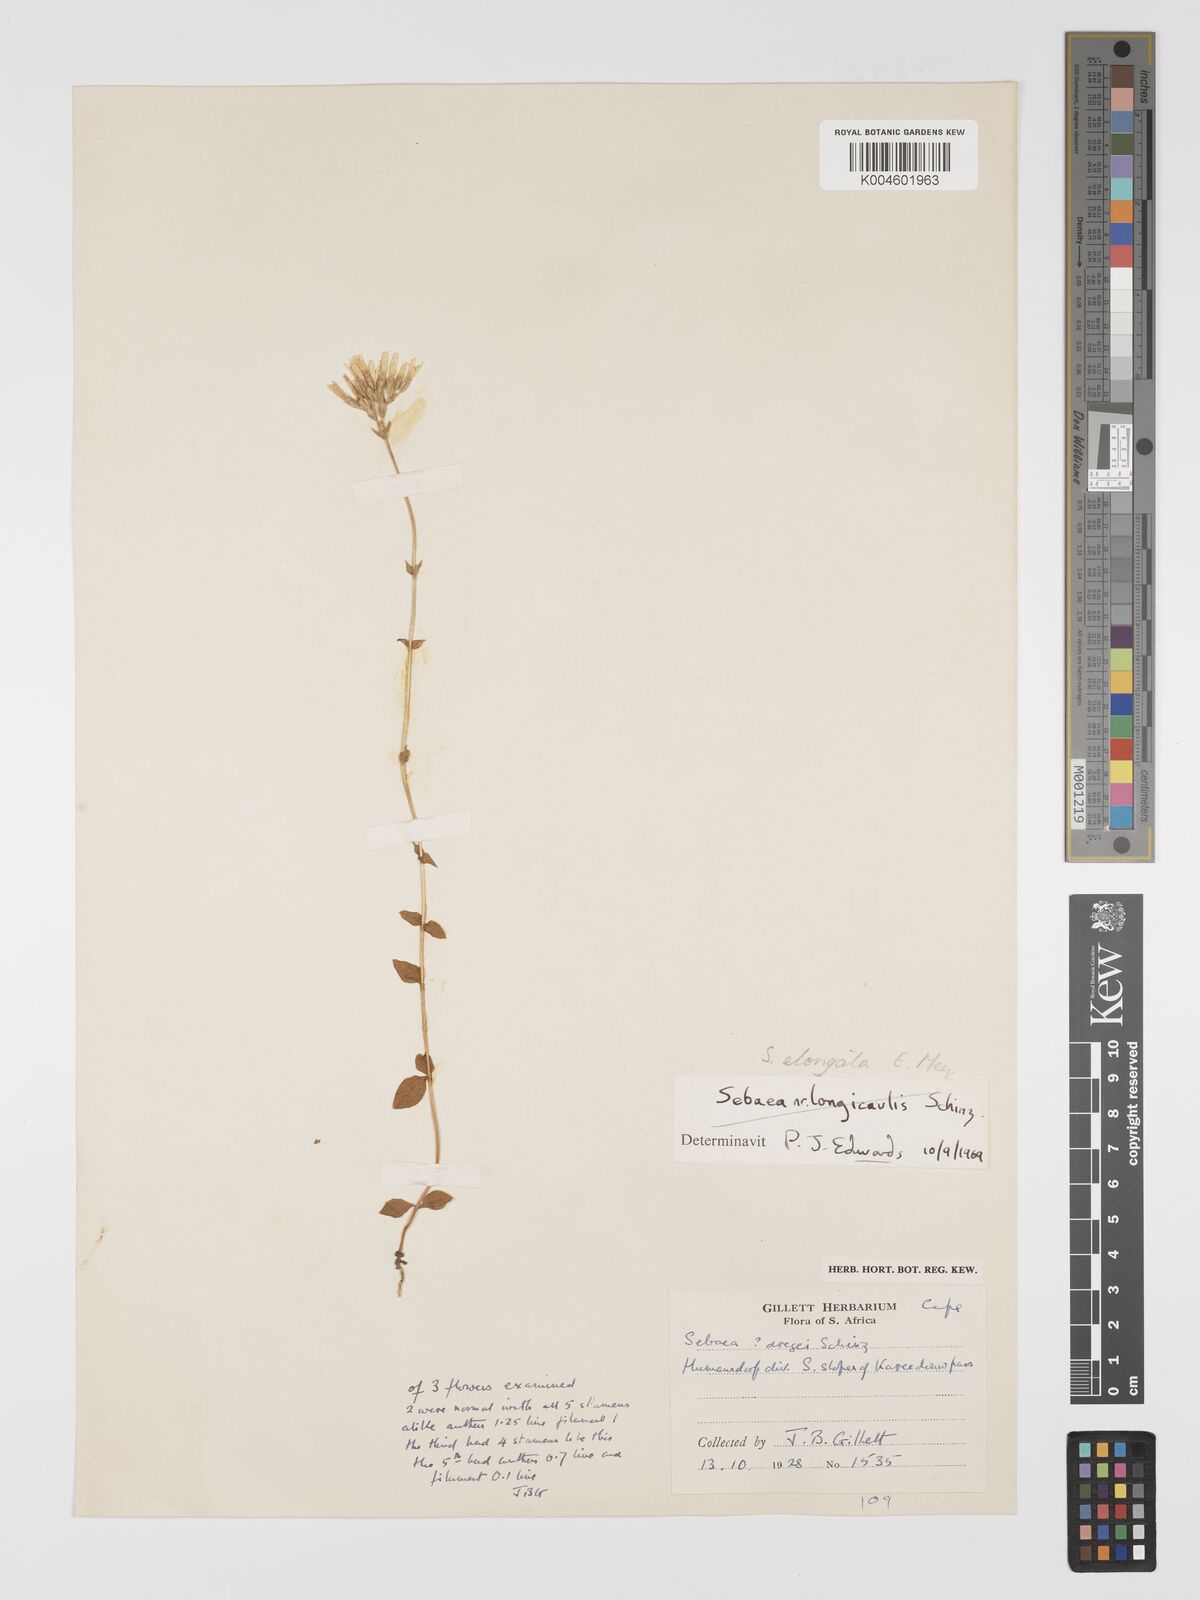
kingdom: Plantae
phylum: Tracheophyta
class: Magnoliopsida
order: Gentianales
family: Gentianaceae
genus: Sebaea
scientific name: Sebaea elongata
